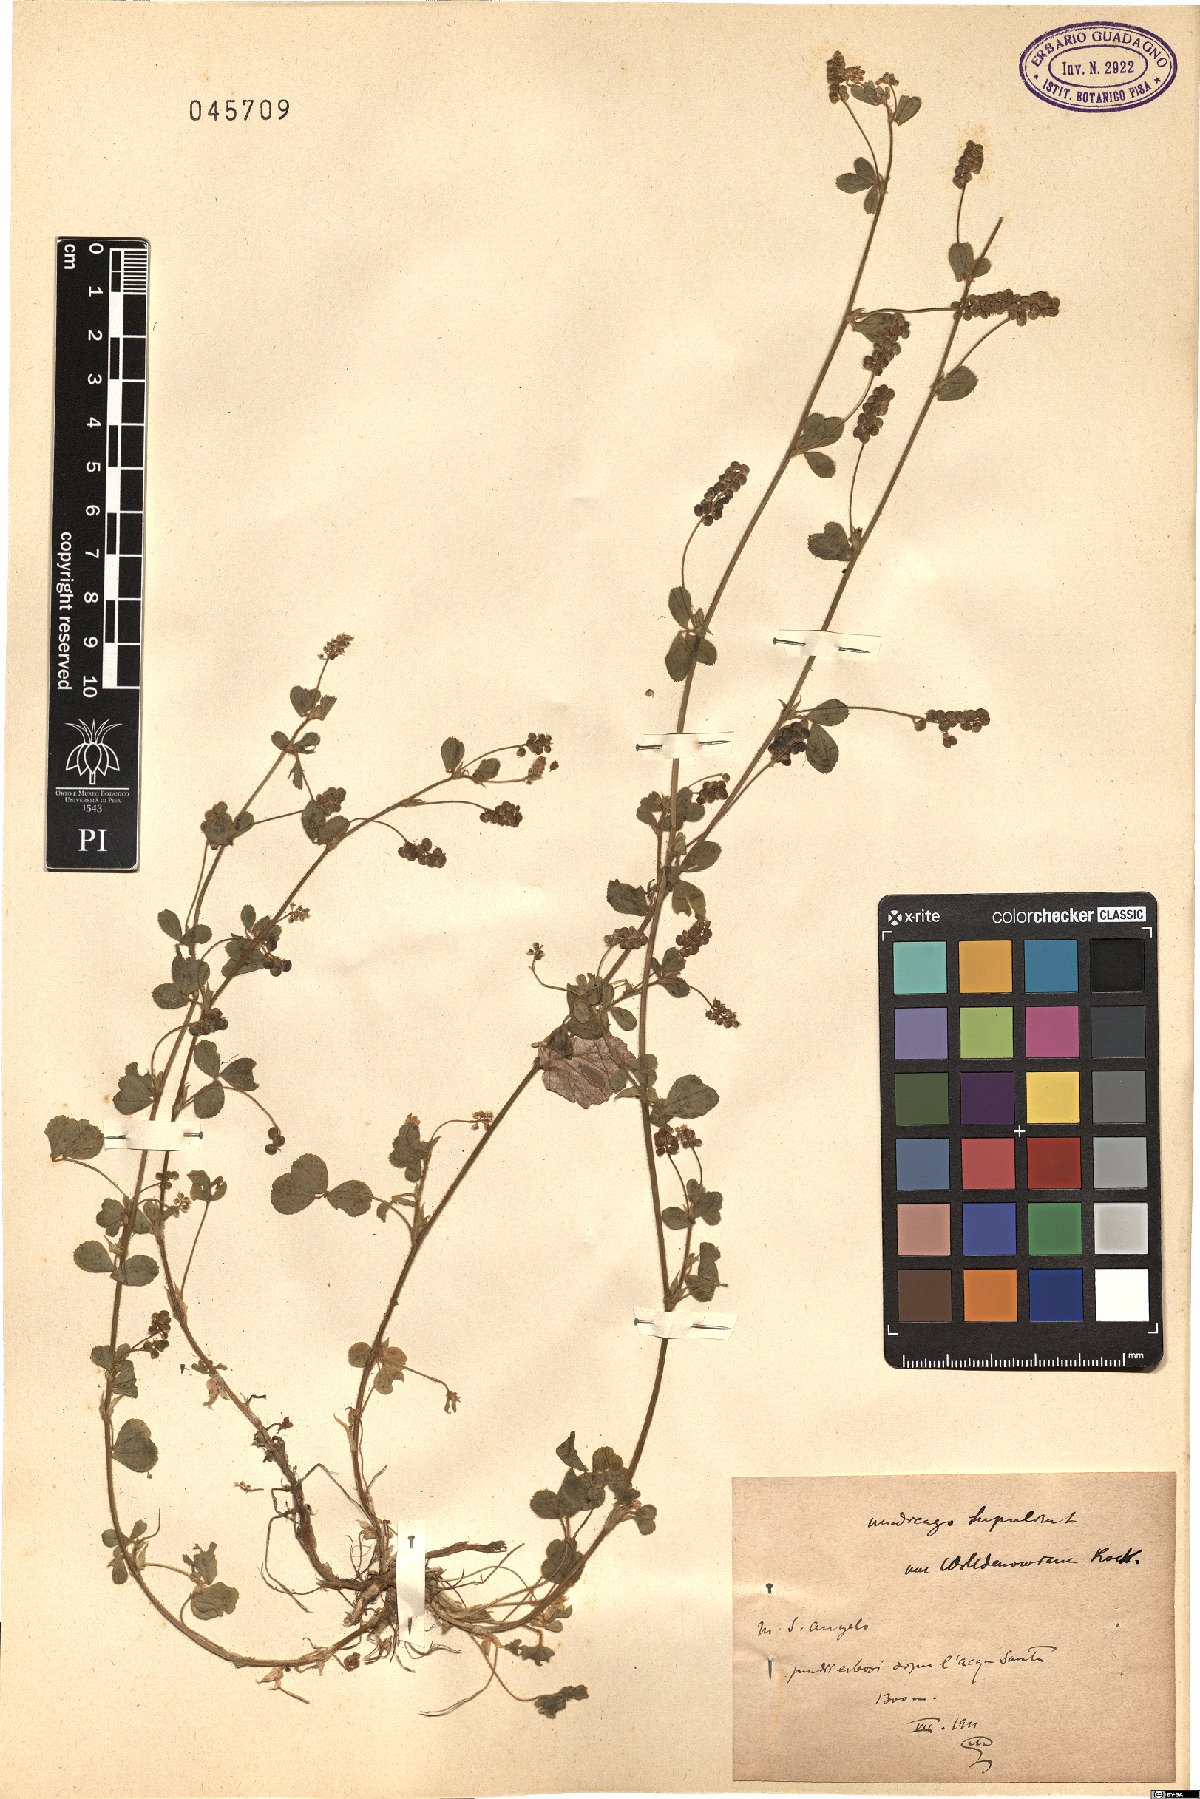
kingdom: Plantae
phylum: Tracheophyta
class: Magnoliopsida
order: Fabales
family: Fabaceae
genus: Medicago
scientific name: Medicago lupulina
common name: Black medick
